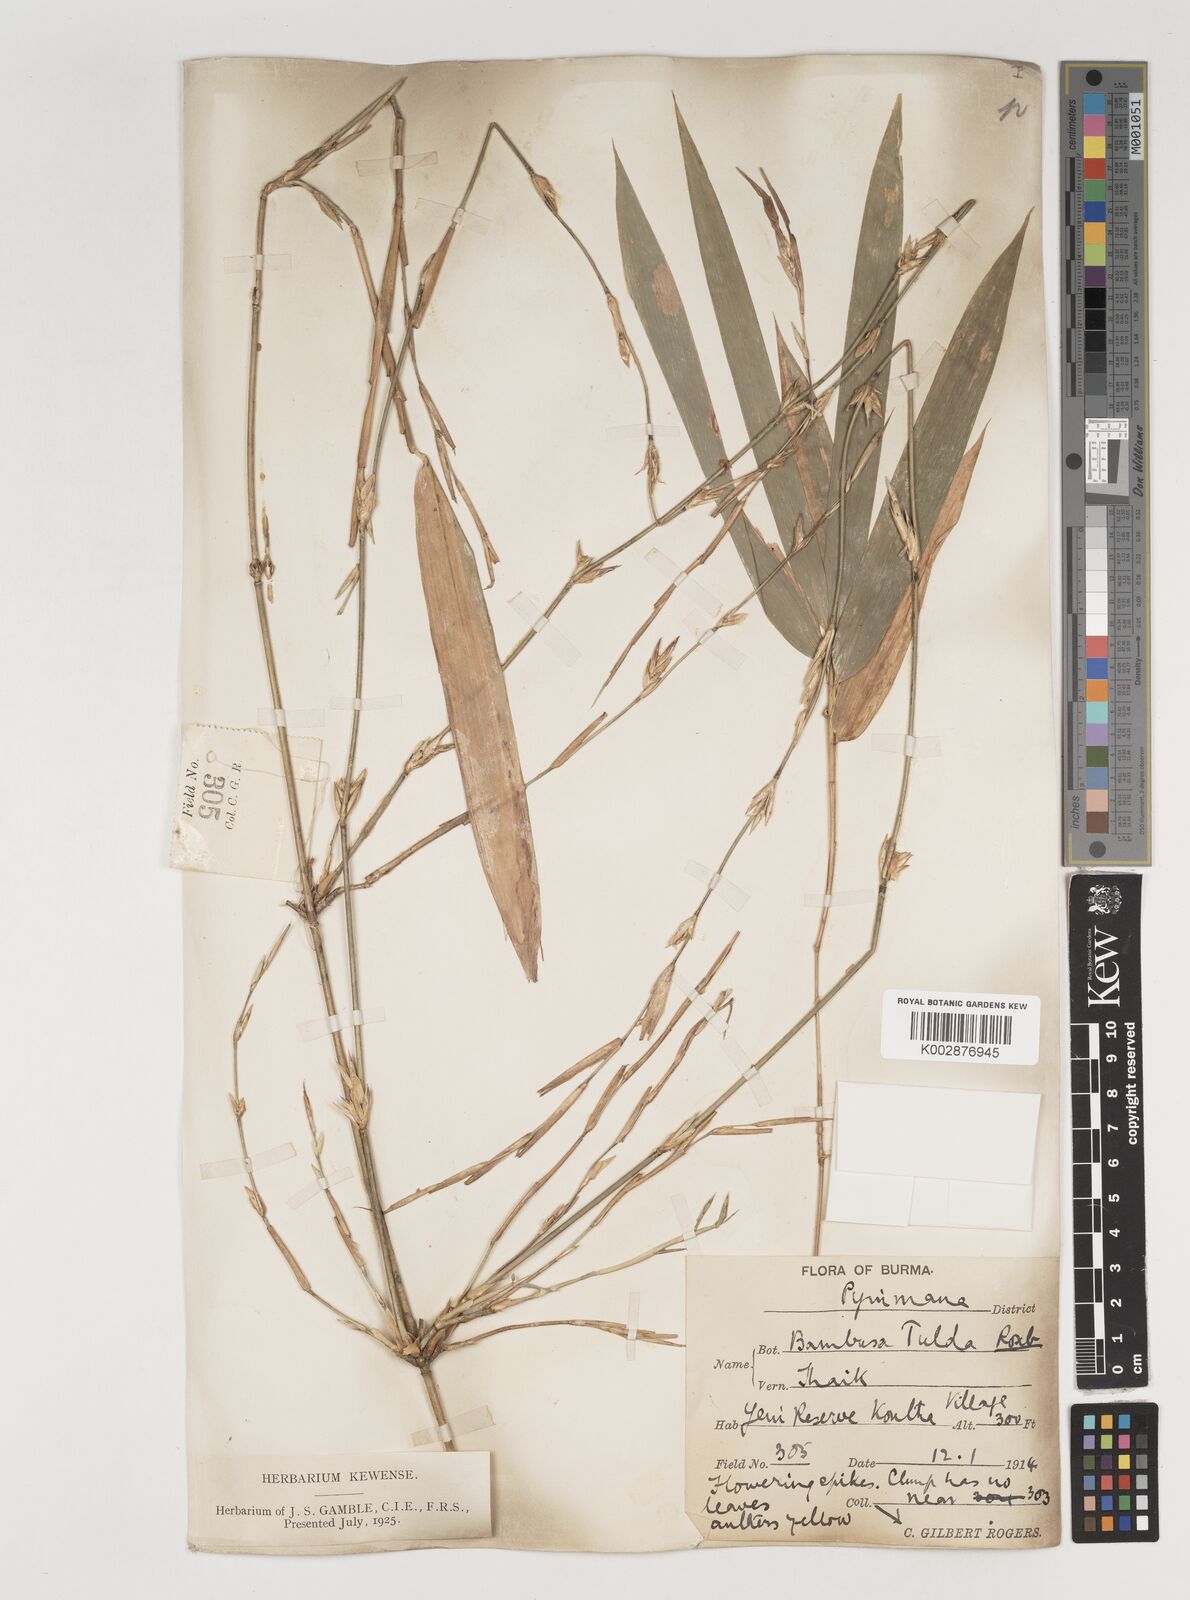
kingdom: Plantae
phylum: Tracheophyta
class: Liliopsida
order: Poales
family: Poaceae
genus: Bambusa
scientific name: Bambusa tulda
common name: Bengal bamboo
